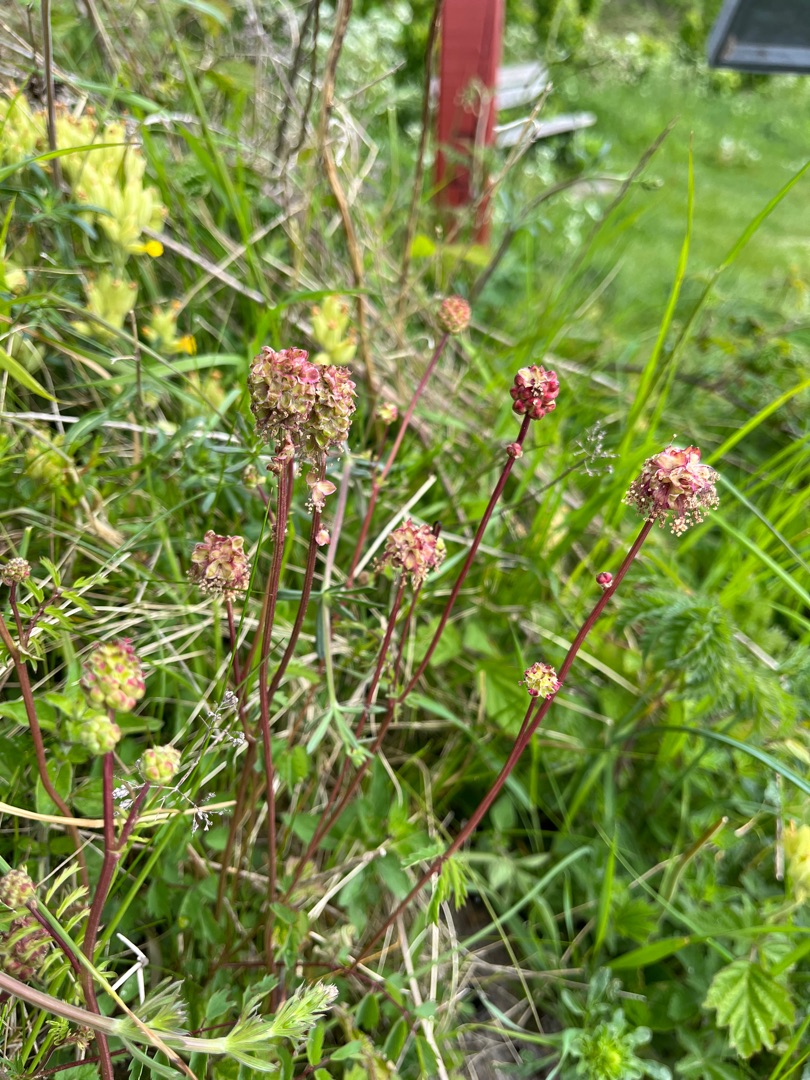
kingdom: Plantae
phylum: Tracheophyta
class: Magnoliopsida
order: Rosales
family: Rosaceae
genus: Poterium
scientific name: Poterium sanguisorba
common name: Bibernelle
